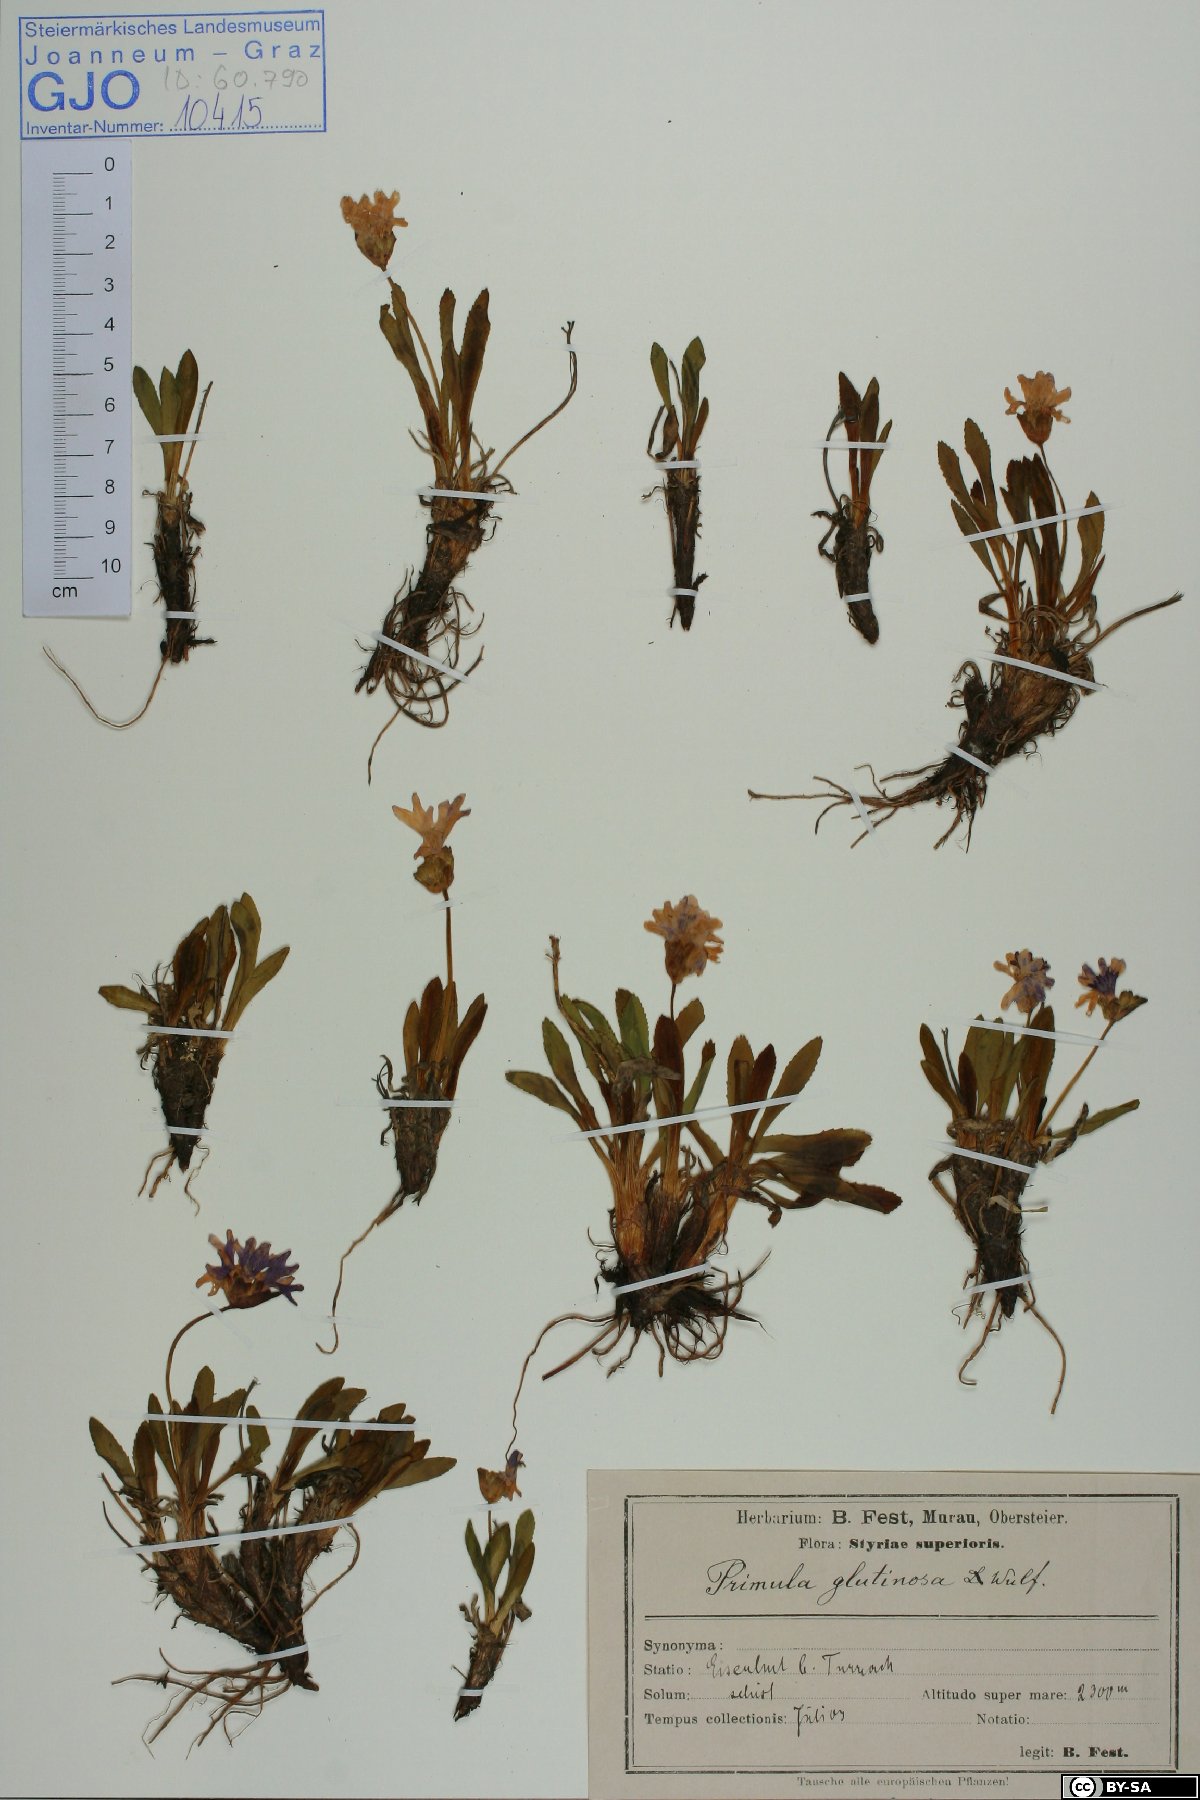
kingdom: Plantae
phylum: Tracheophyta
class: Magnoliopsida
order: Ericales
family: Primulaceae
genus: Primula
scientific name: Primula glutinosa
